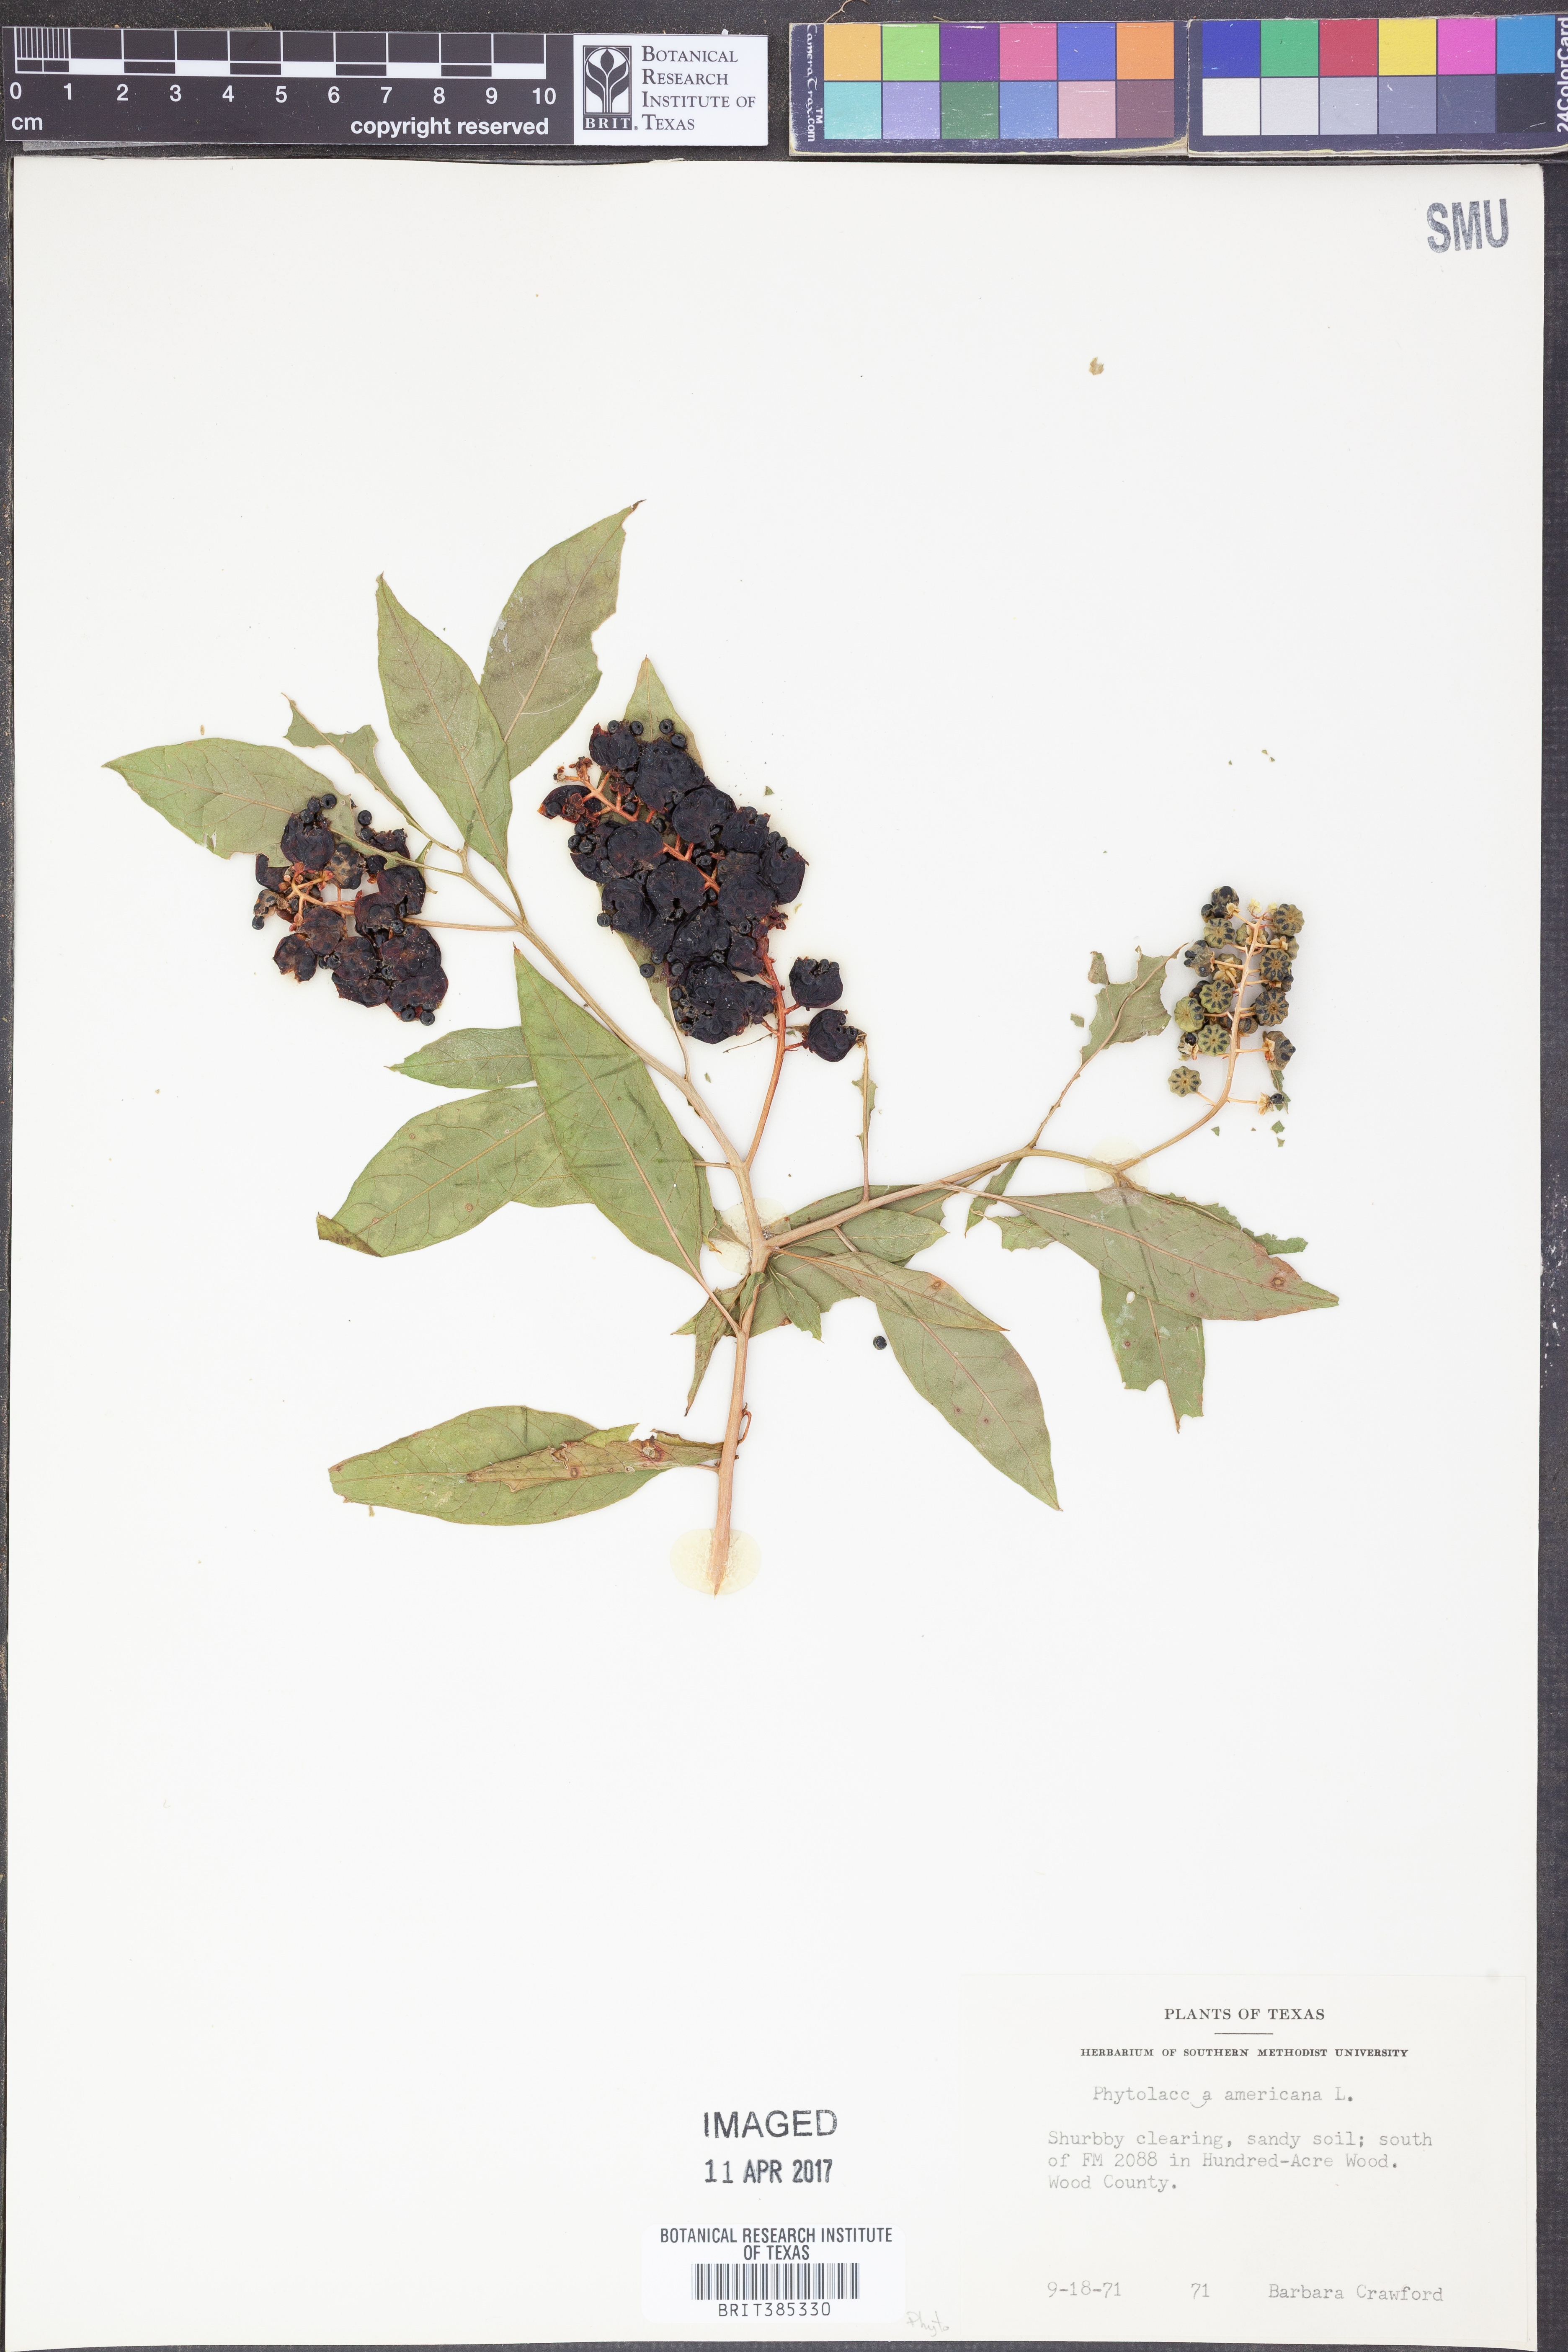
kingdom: Plantae
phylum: Tracheophyta
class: Magnoliopsida
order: Caryophyllales
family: Phytolaccaceae
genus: Phytolacca
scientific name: Phytolacca americana
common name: American pokeweed
